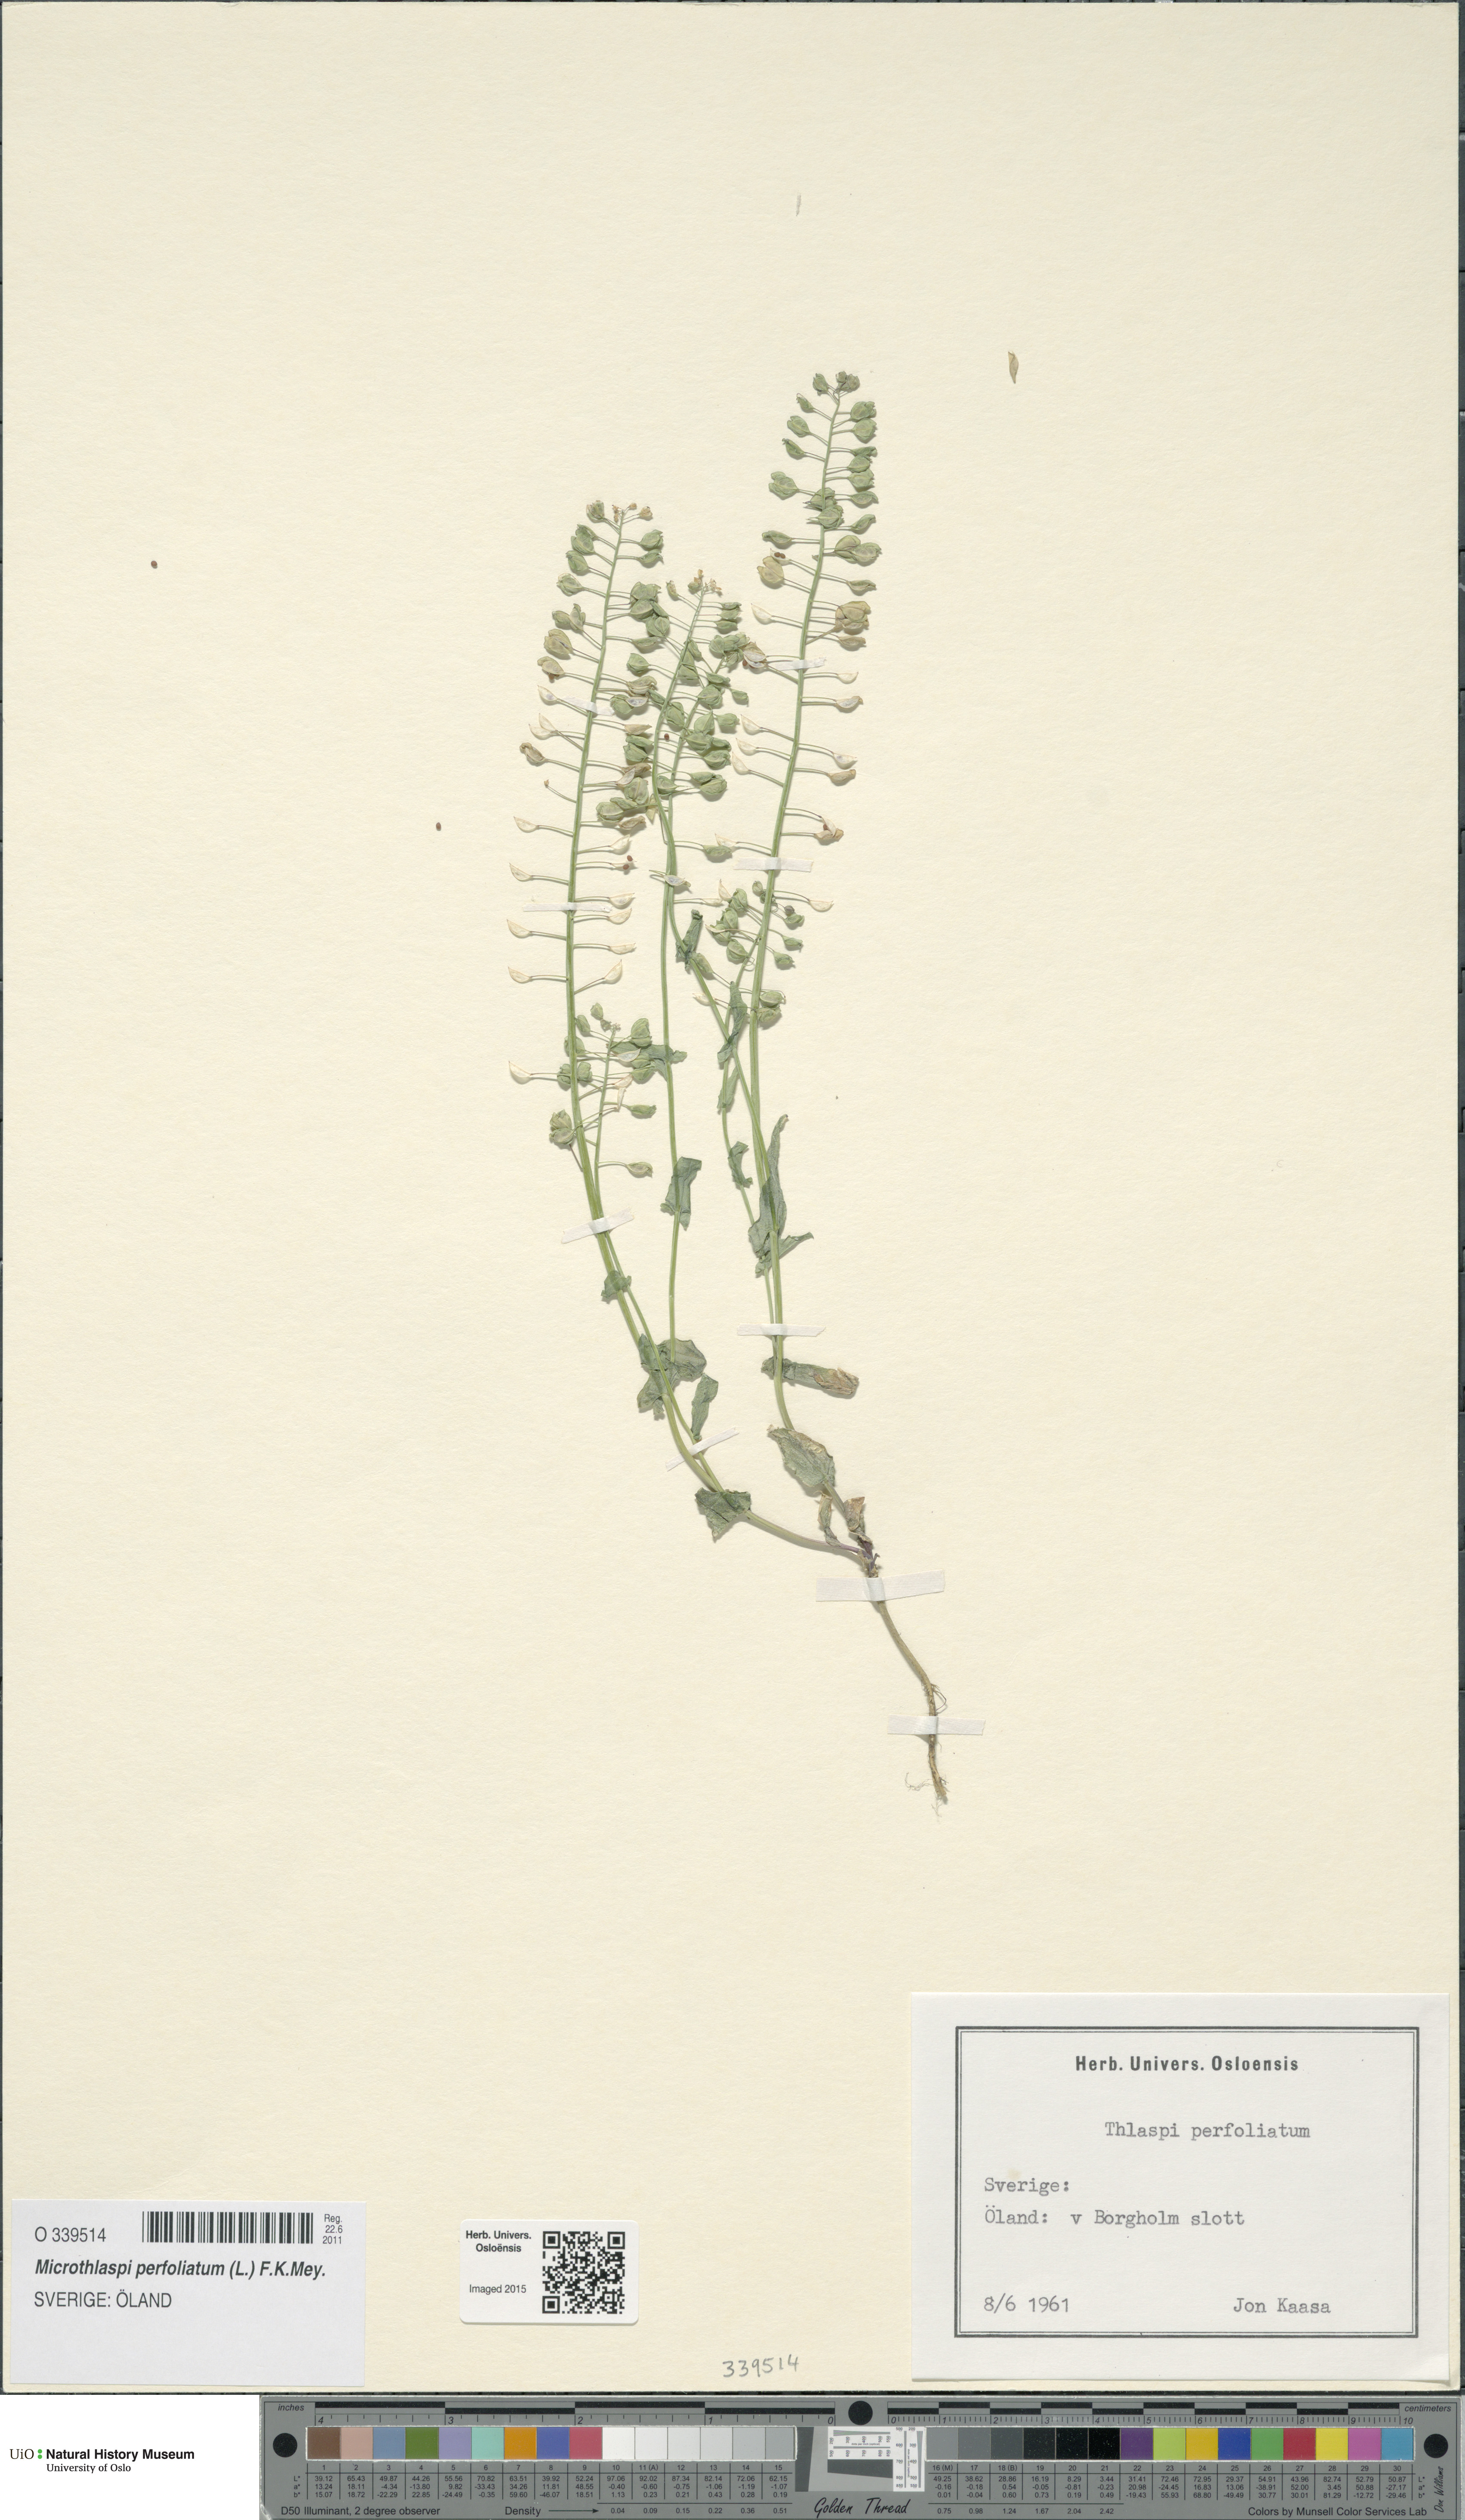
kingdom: Plantae
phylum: Tracheophyta
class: Magnoliopsida
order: Brassicales
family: Brassicaceae
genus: Noccaea
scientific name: Noccaea perfoliata
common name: Perfoliate pennycress
